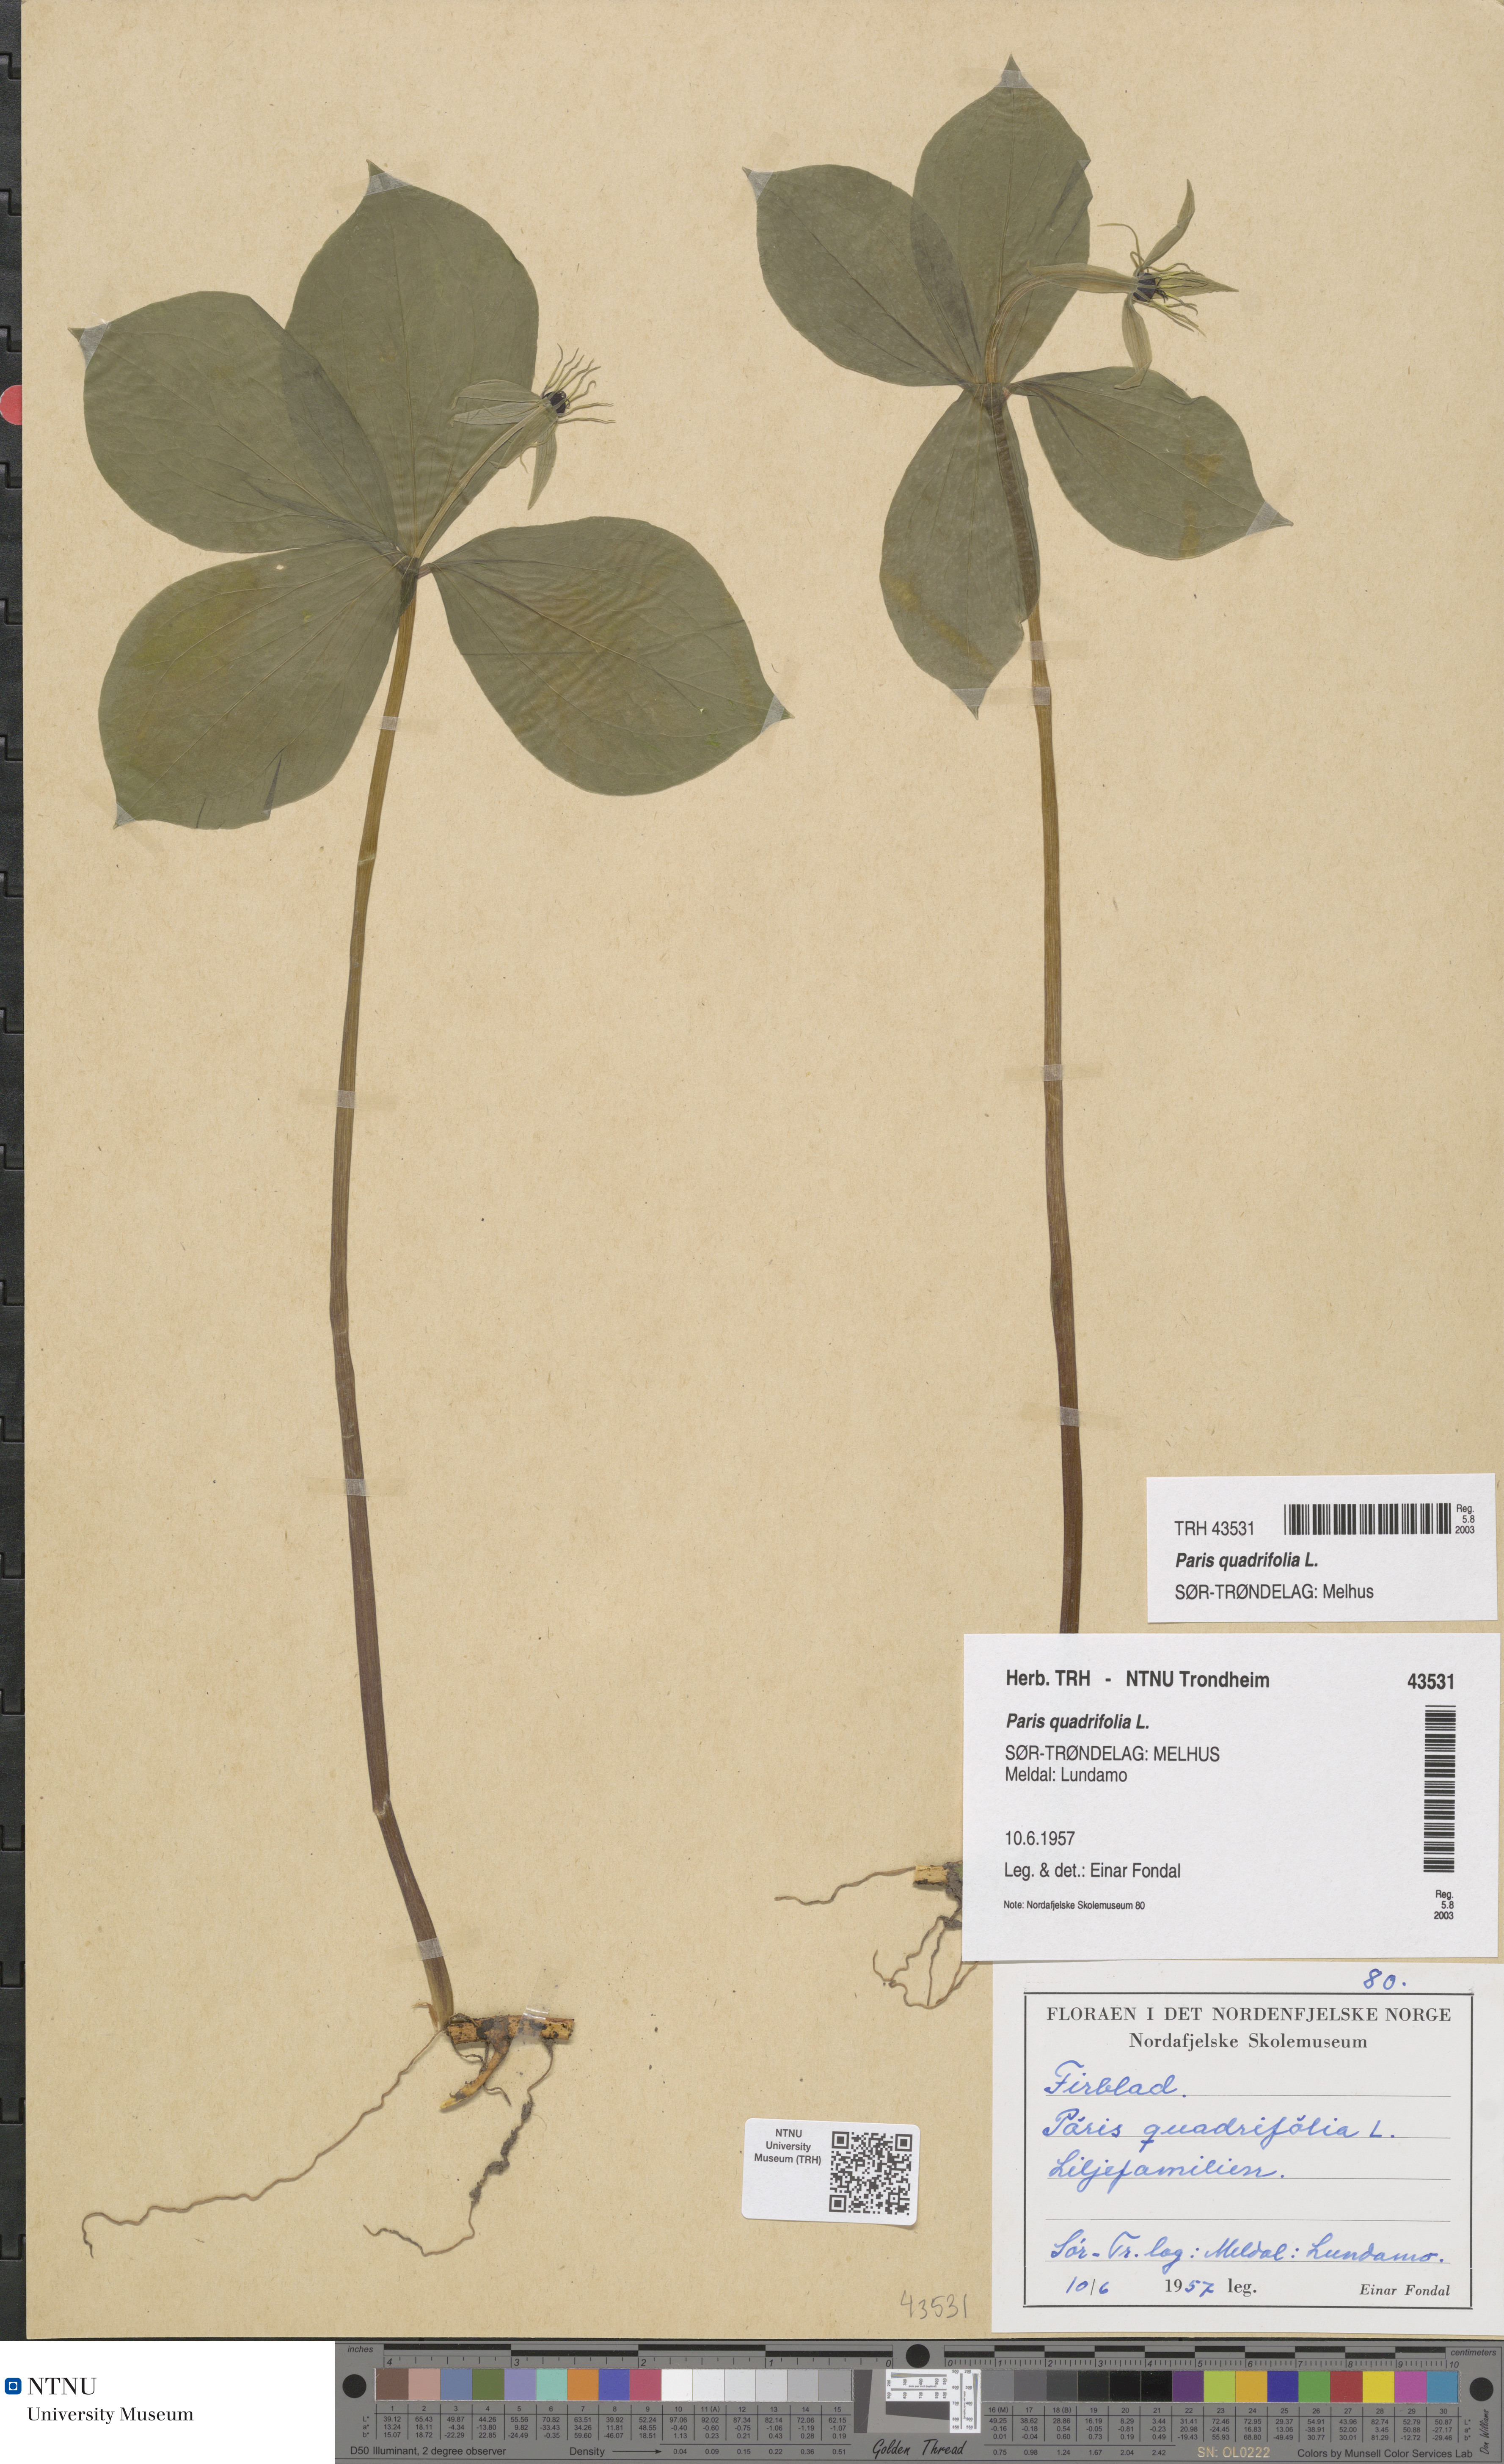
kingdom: Plantae
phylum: Tracheophyta
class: Liliopsida
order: Liliales
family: Melanthiaceae
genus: Paris
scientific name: Paris quadrifolia
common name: Herb-paris
